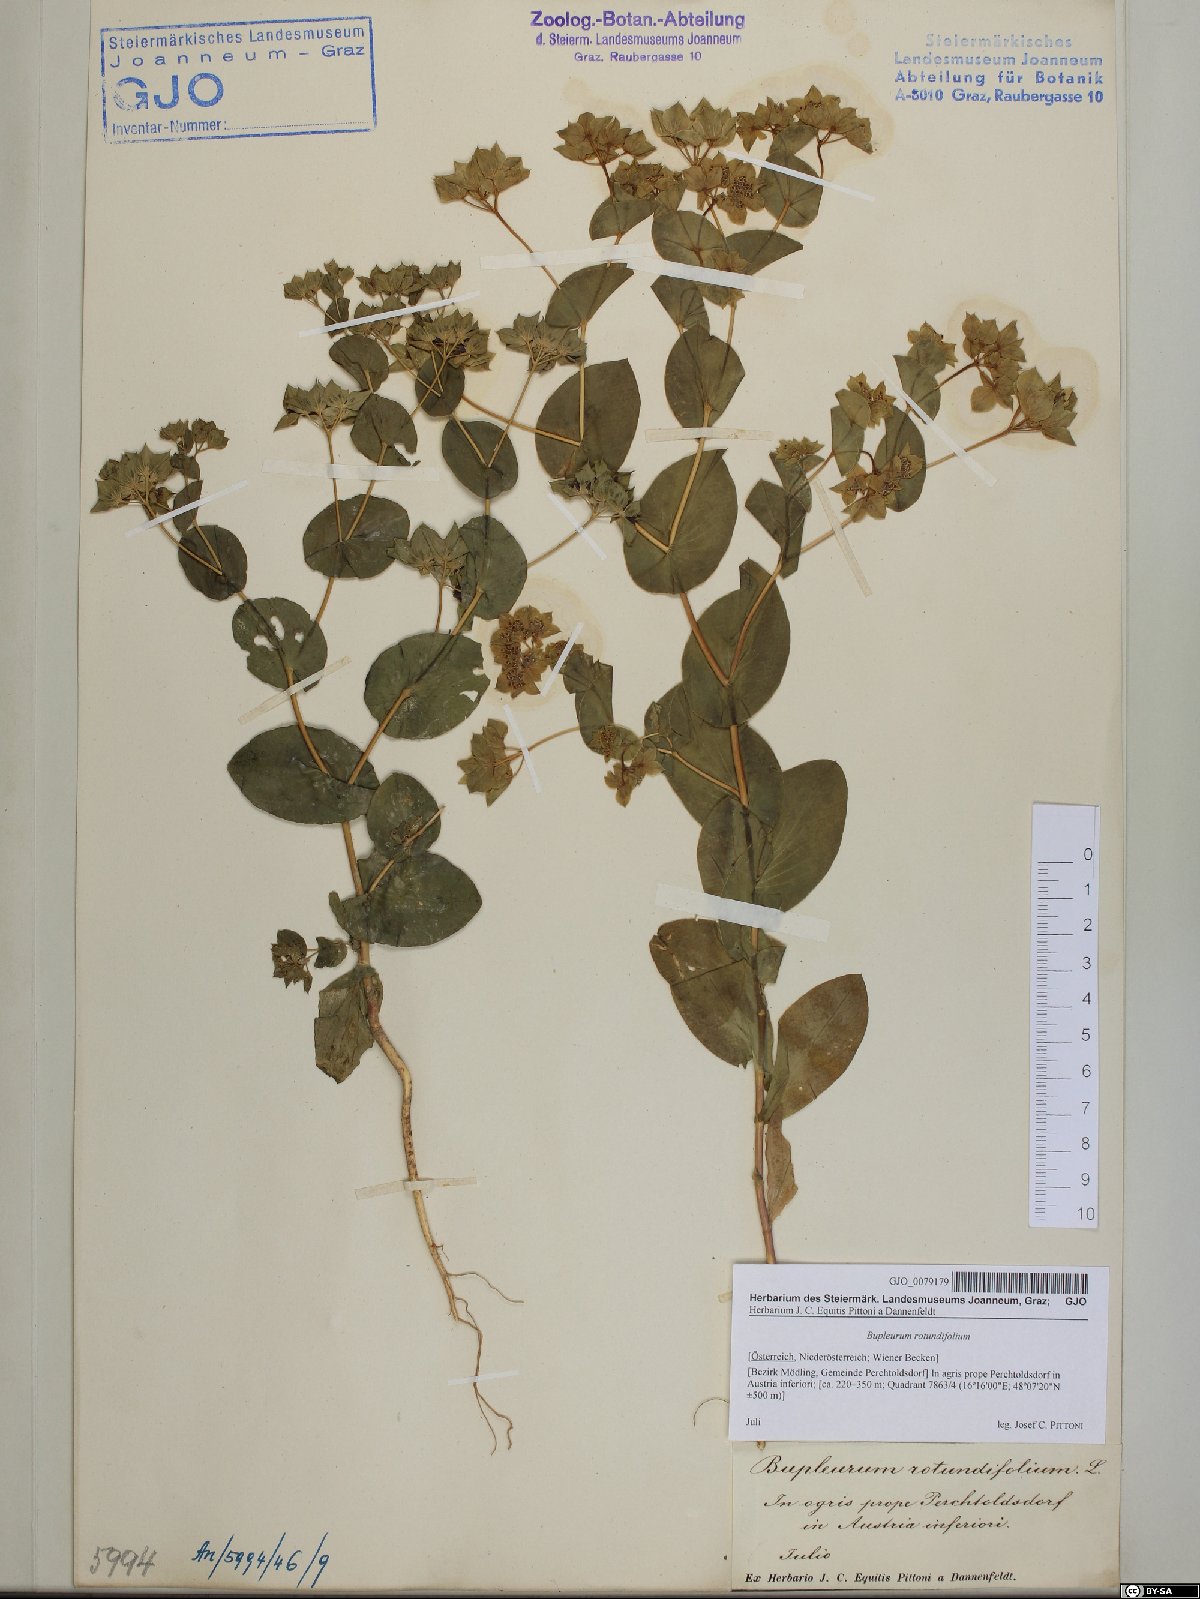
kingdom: Plantae
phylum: Tracheophyta
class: Magnoliopsida
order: Apiales
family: Apiaceae
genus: Bupleurum
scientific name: Bupleurum rotundifolium
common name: Thorow-wax
